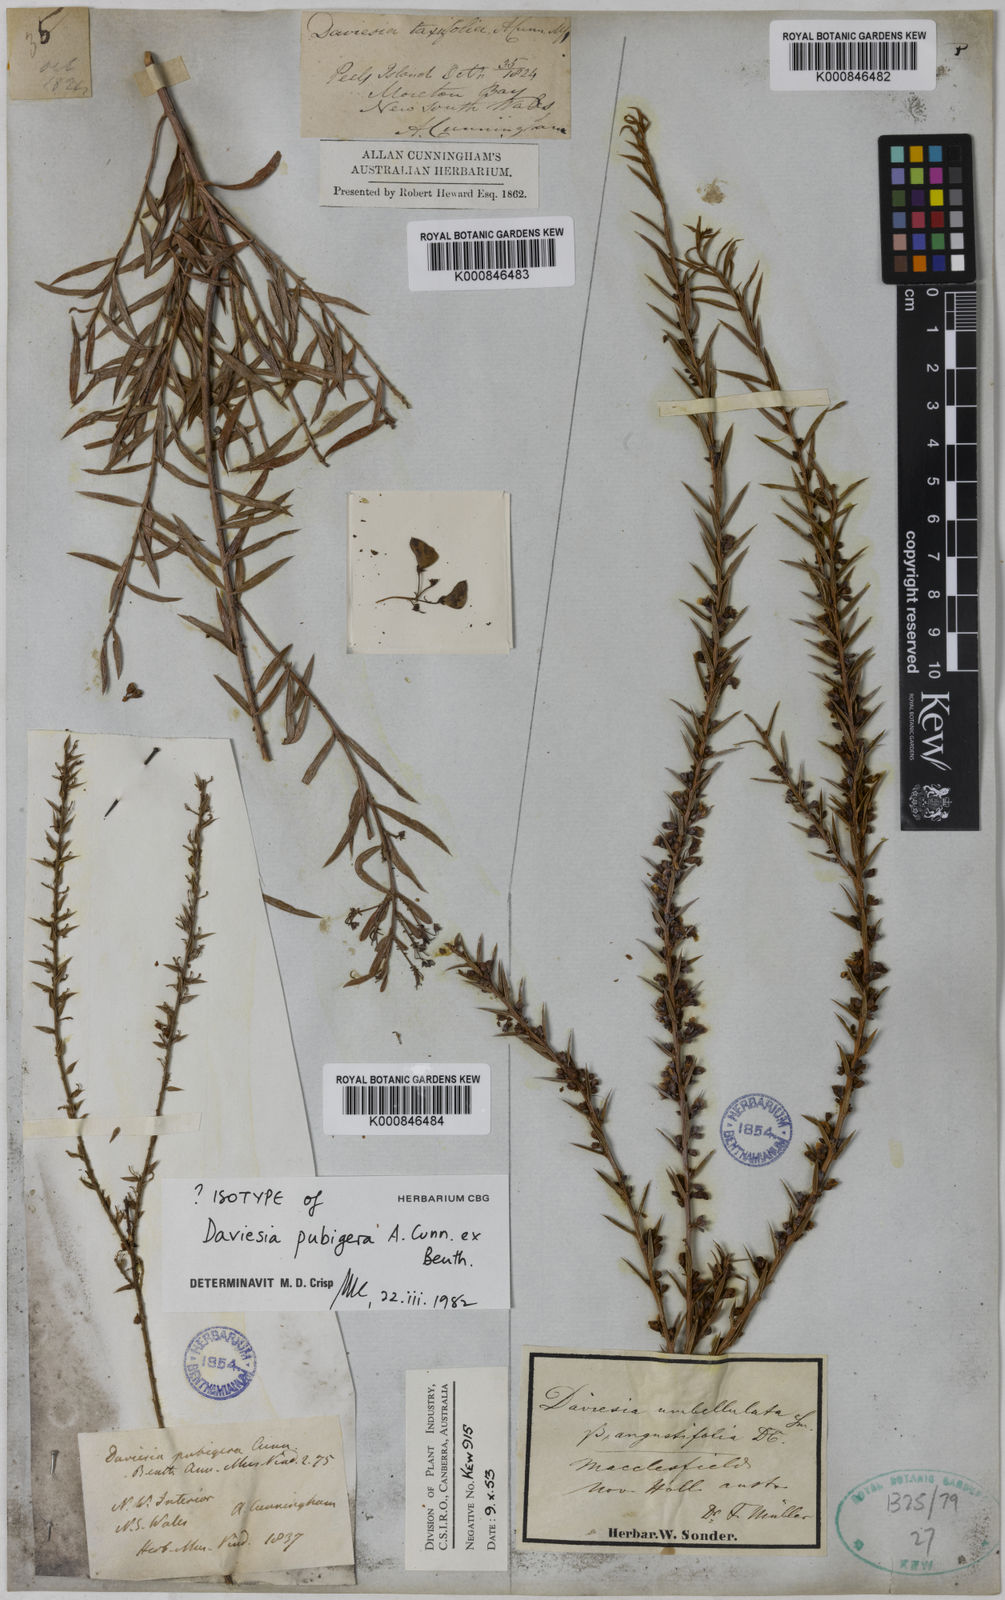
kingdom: Plantae
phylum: Tracheophyta
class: Magnoliopsida
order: Fabales
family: Fabaceae
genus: Daviesia
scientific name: Daviesia pubigera
